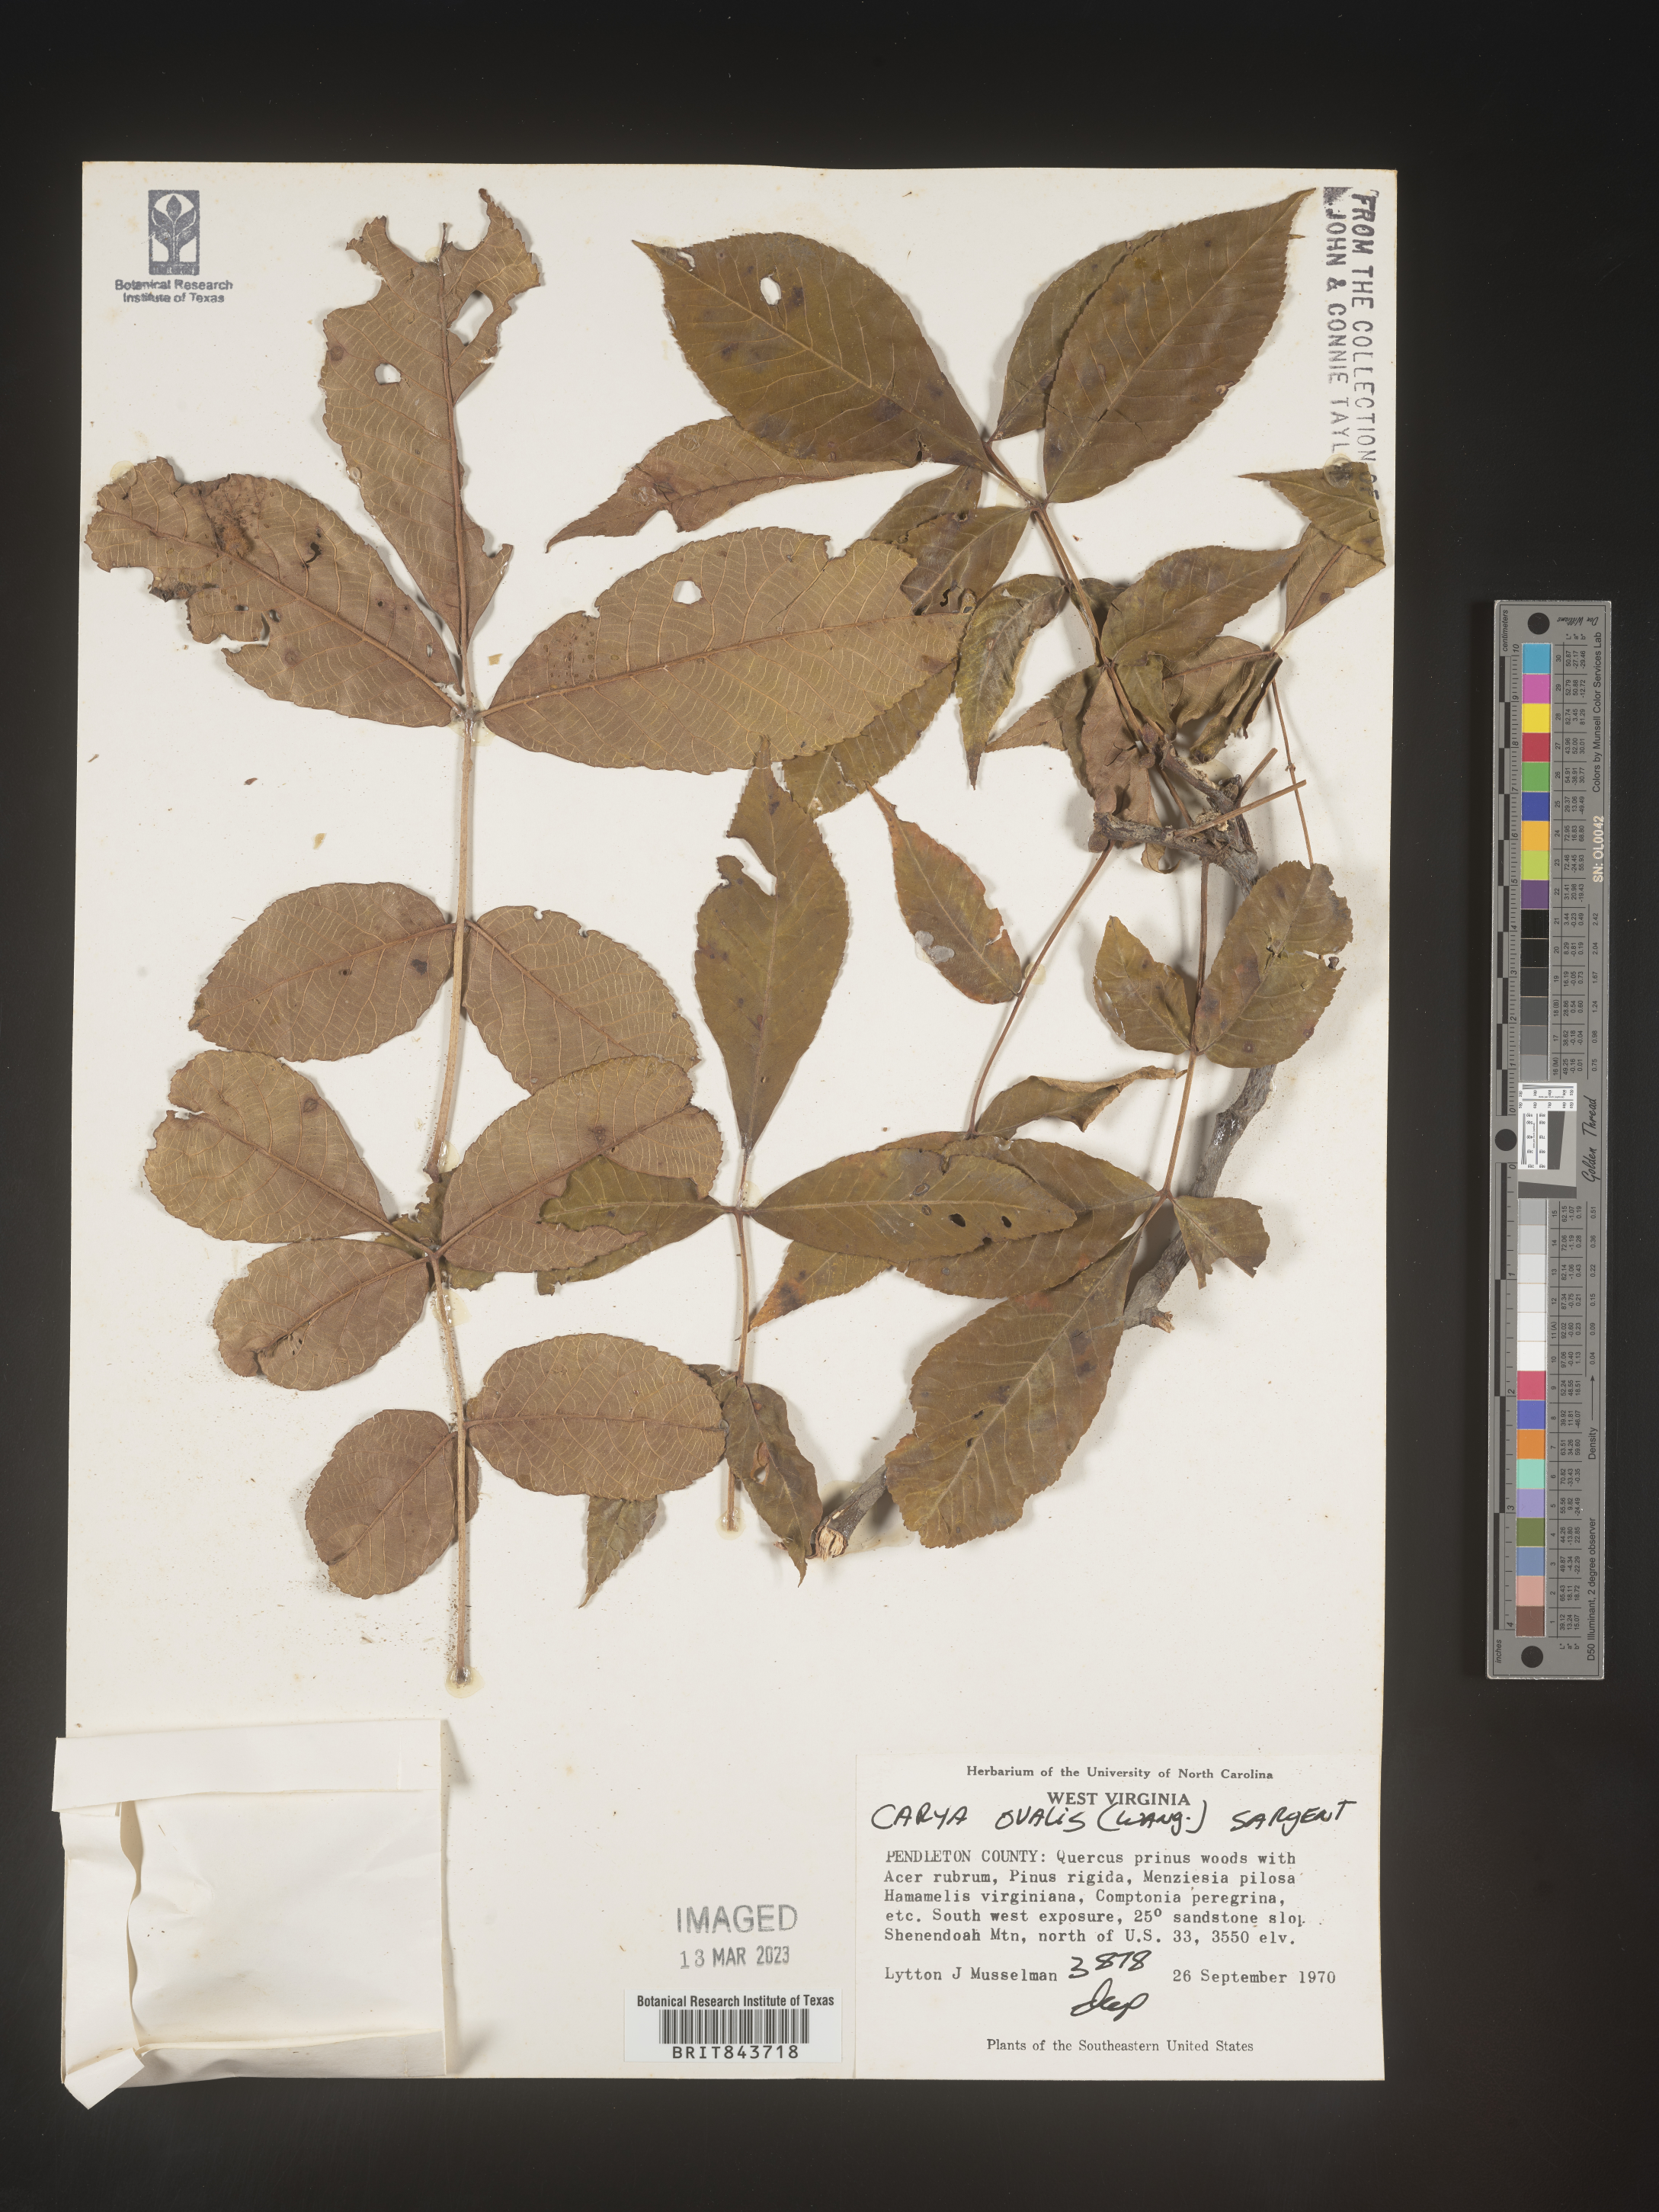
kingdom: Plantae
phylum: Tracheophyta
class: Magnoliopsida
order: Fagales
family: Juglandaceae
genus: Carya
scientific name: Carya ovalis
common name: False shagbark
